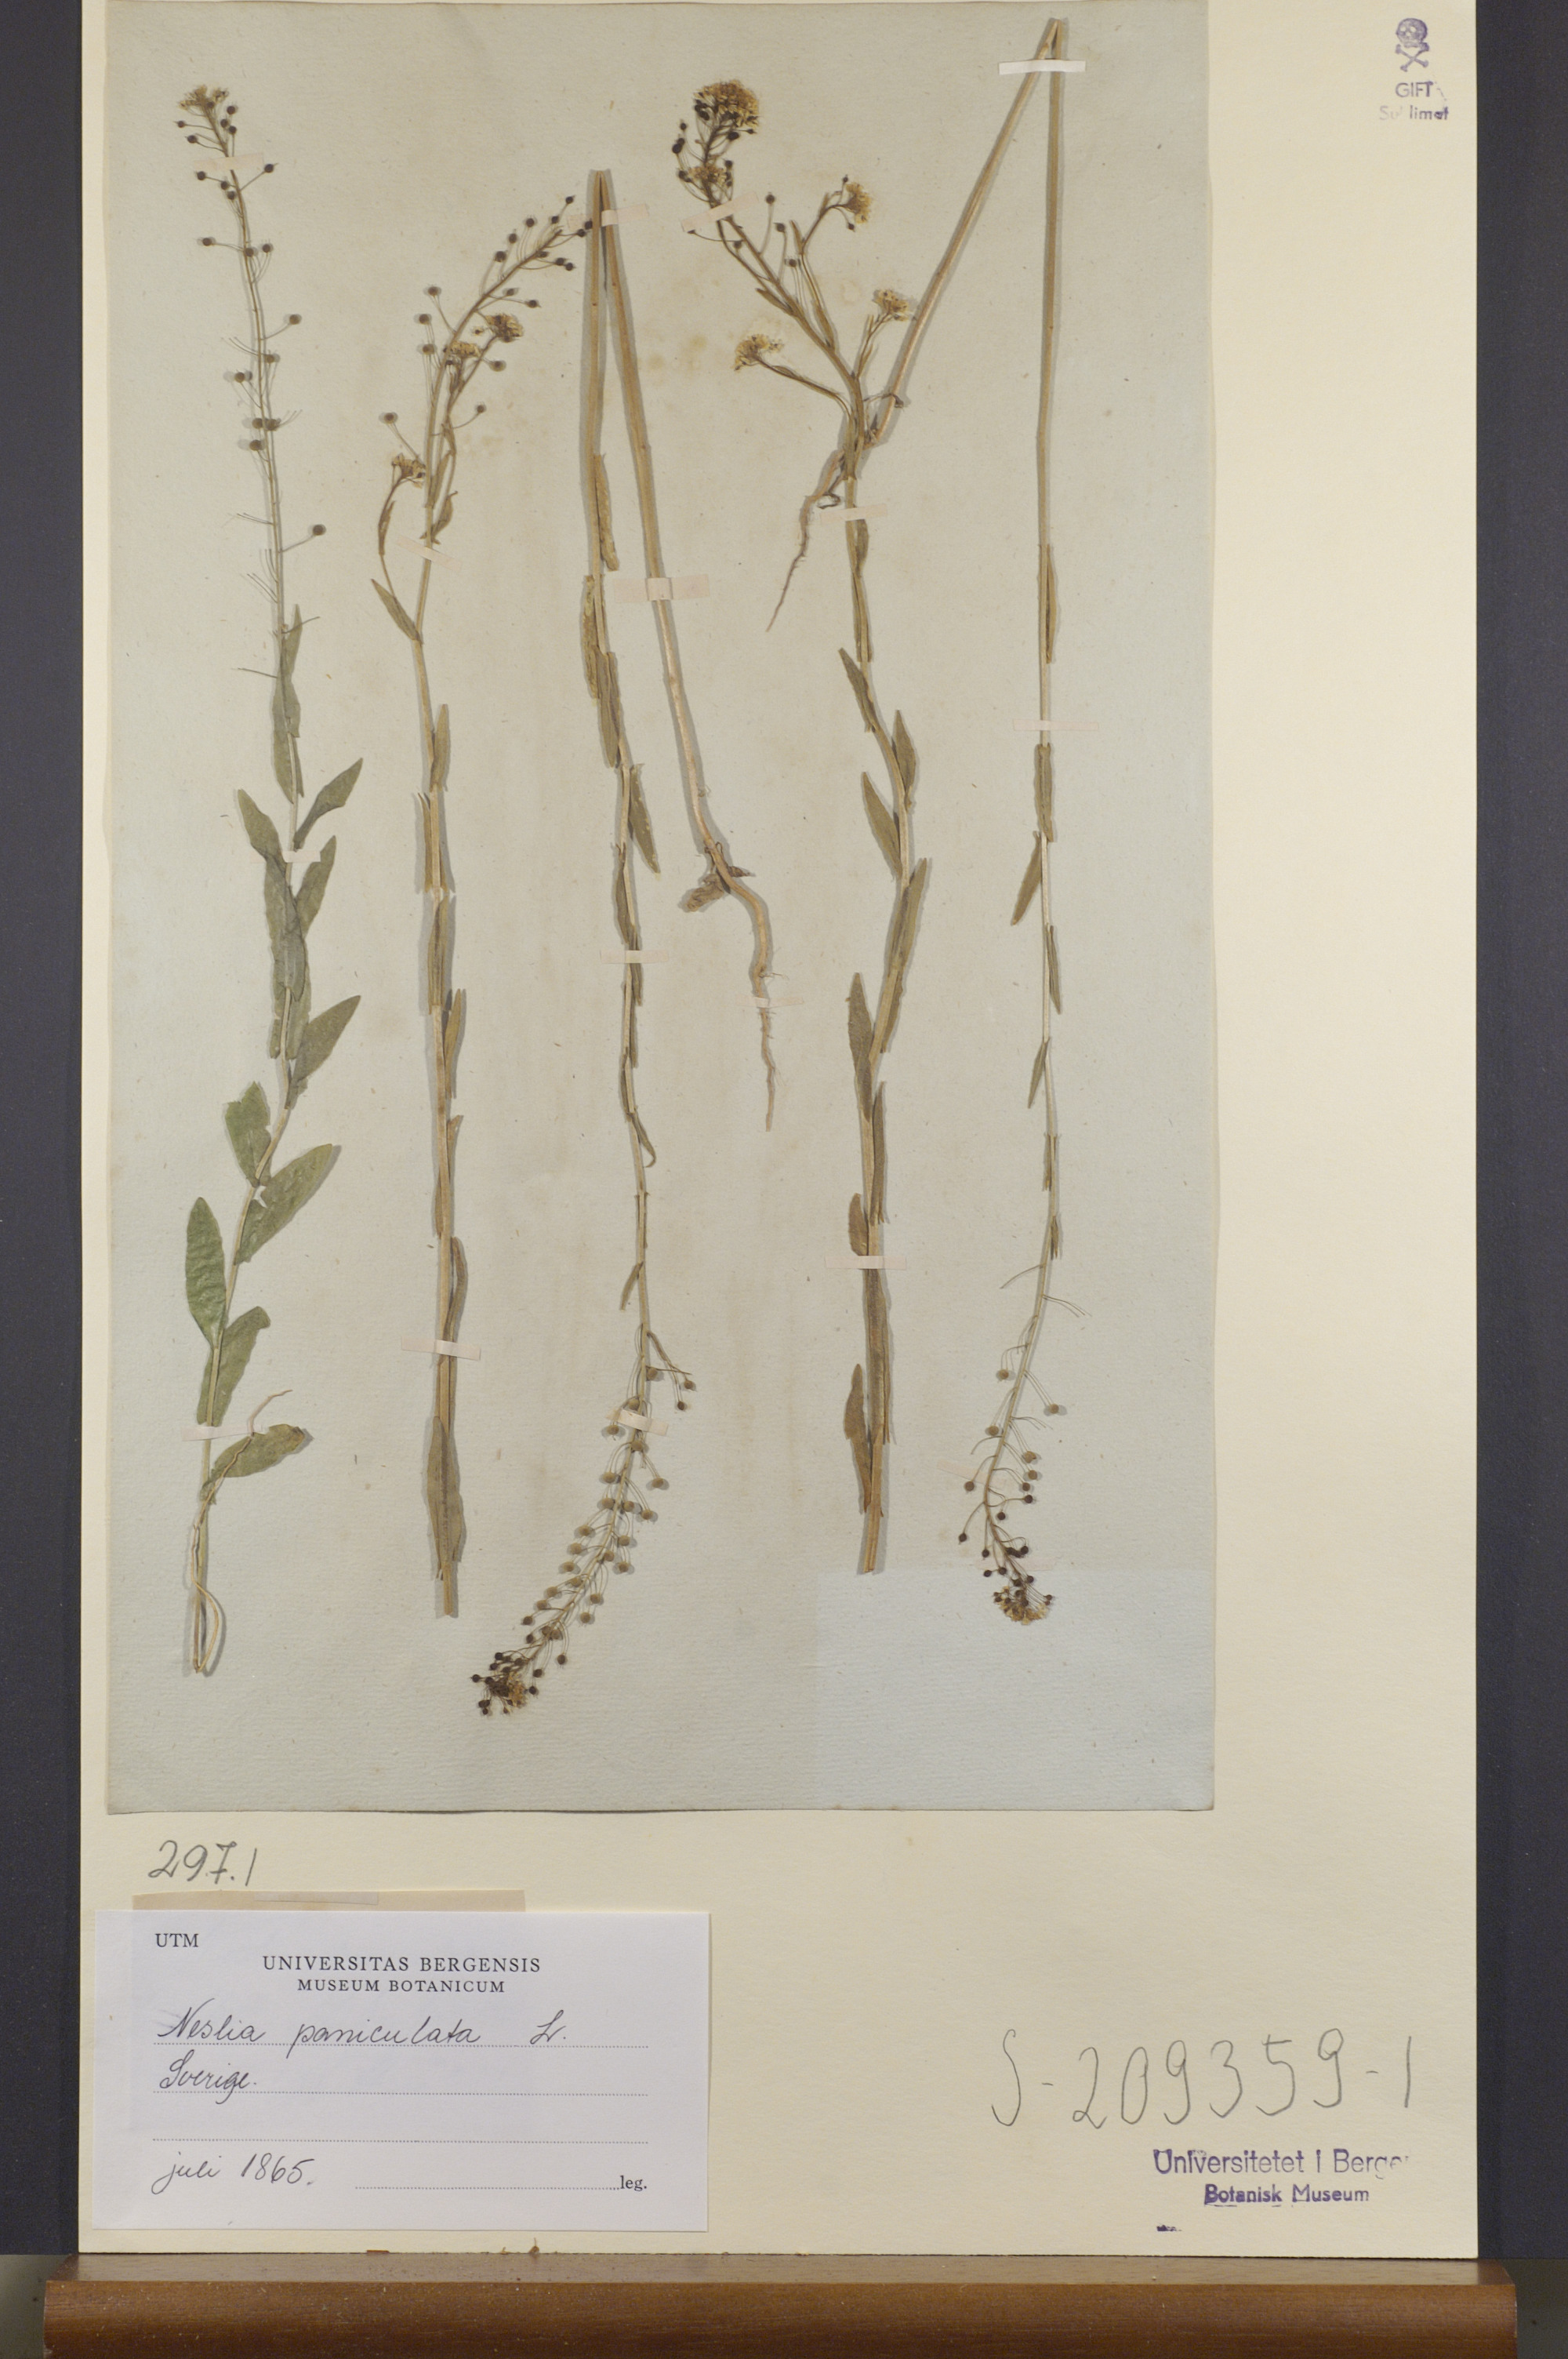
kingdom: Plantae
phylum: Tracheophyta
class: Magnoliopsida
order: Brassicales
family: Brassicaceae
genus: Neslia
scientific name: Neslia paniculata
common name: Ball mustard
